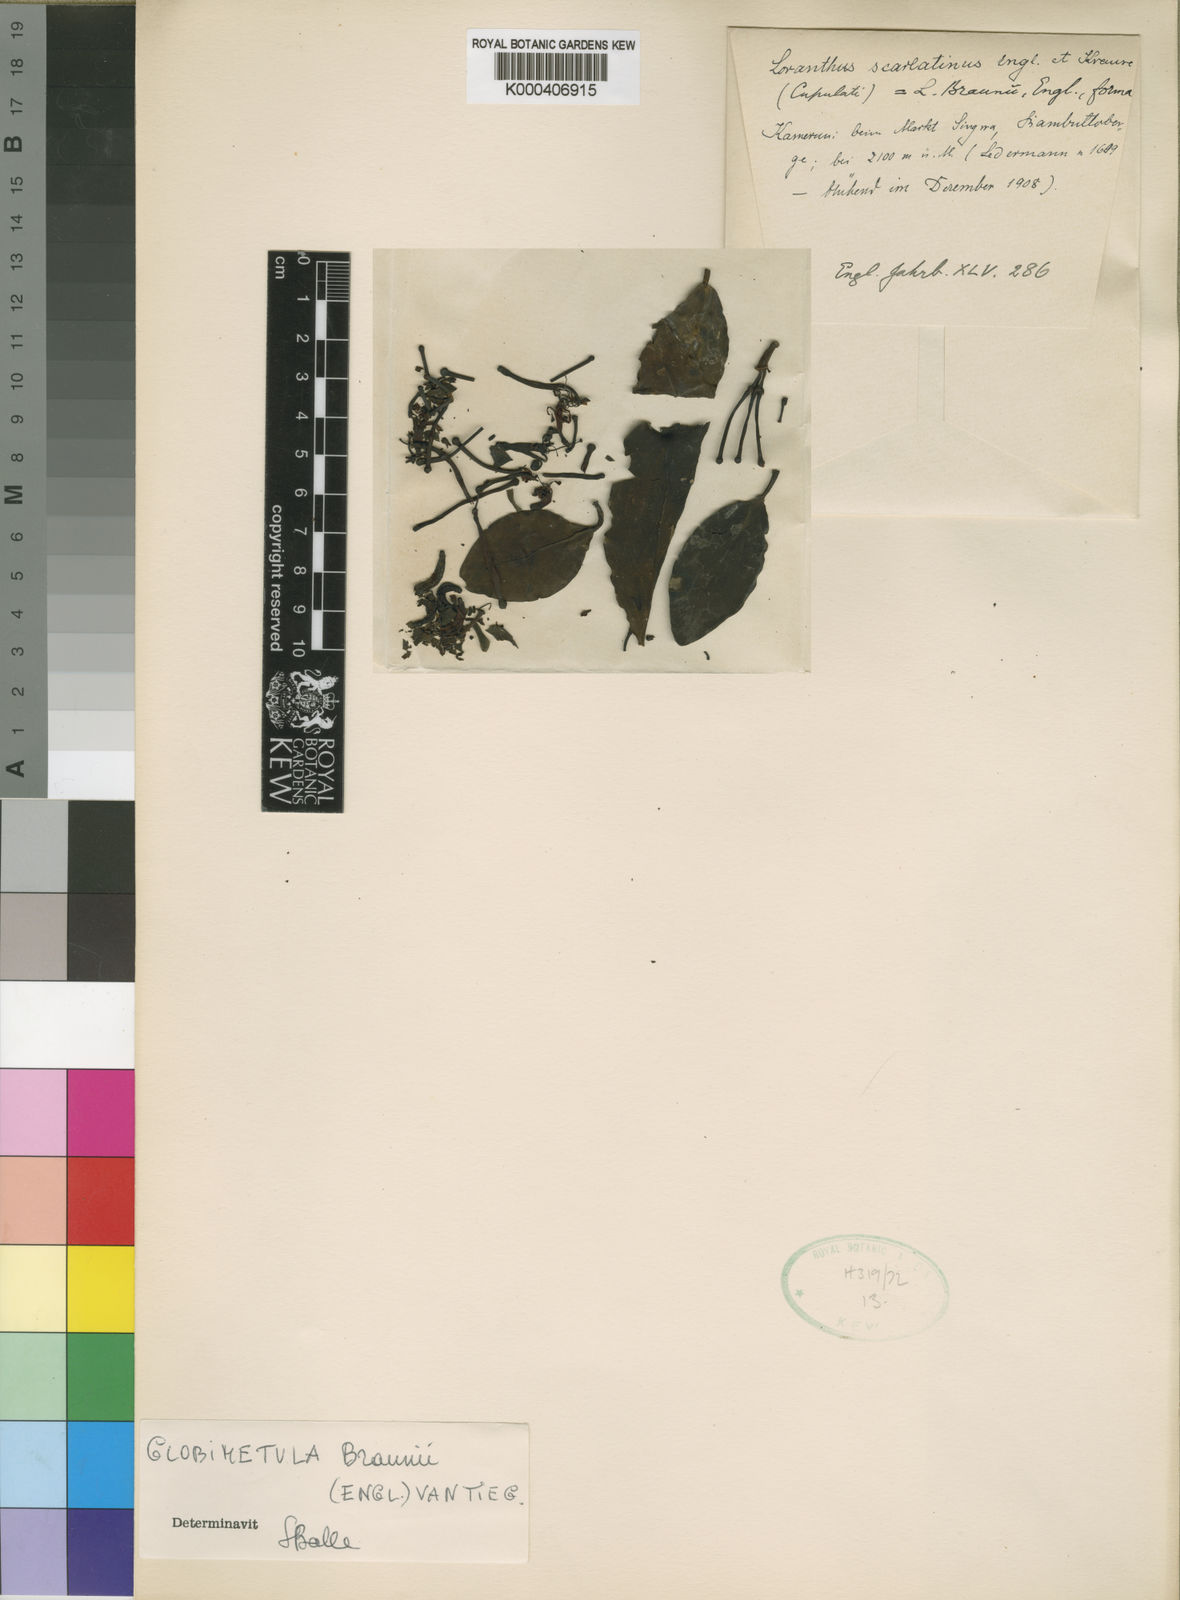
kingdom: Plantae
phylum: Tracheophyta
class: Magnoliopsida
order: Santalales
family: Loranthaceae
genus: Globimetula
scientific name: Globimetula braunii
